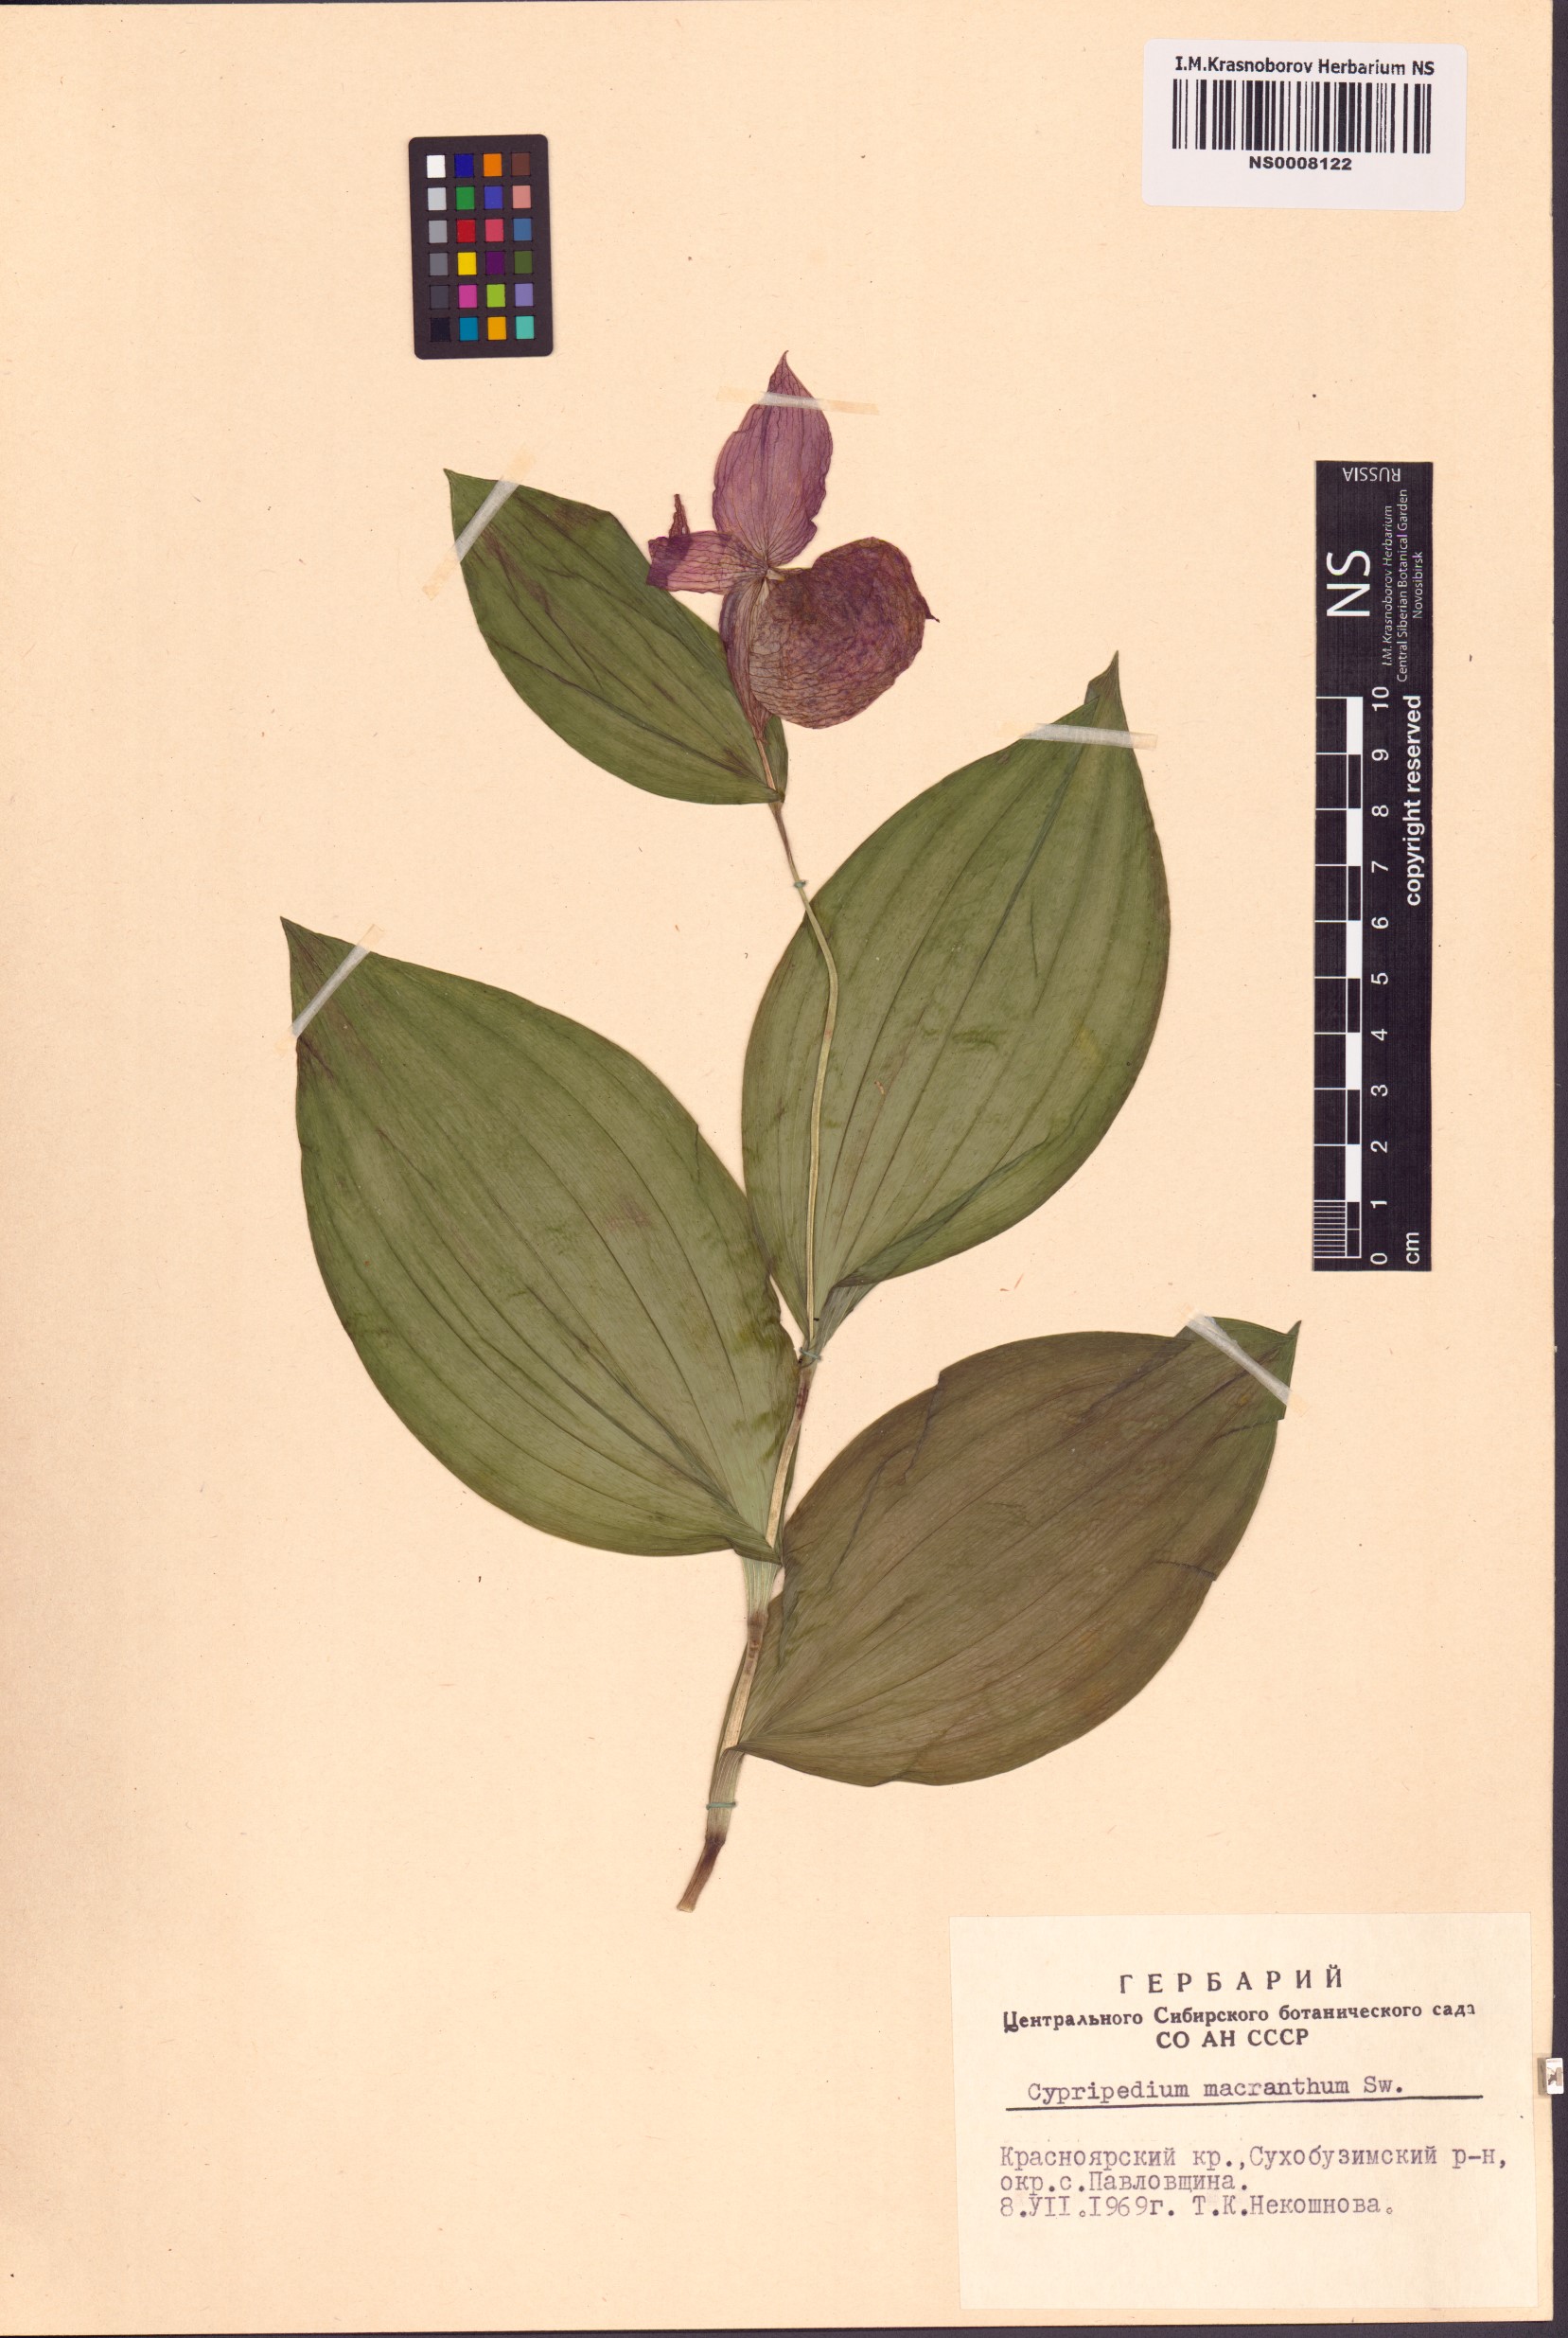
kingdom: Plantae
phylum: Tracheophyta
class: Liliopsida
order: Asparagales
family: Orchidaceae
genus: Cypripedium
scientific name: Cypripedium macranthos
